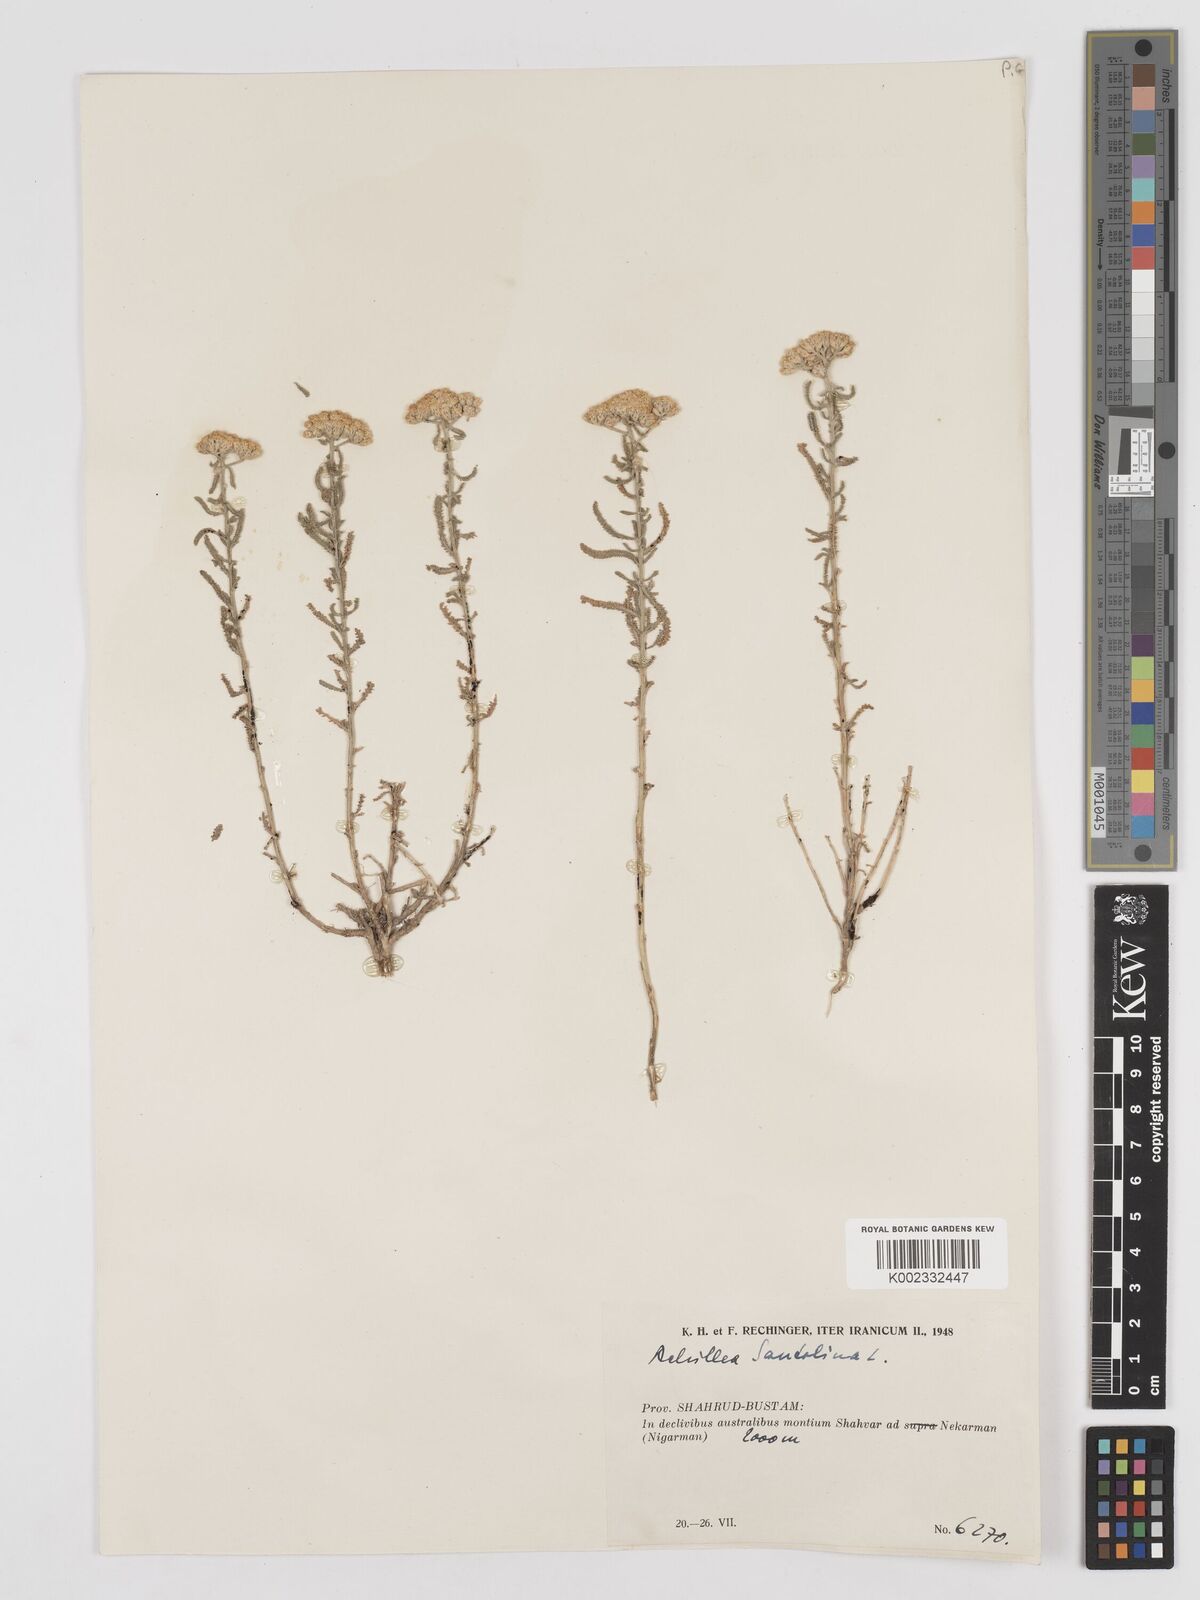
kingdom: Plantae
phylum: Tracheophyta
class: Magnoliopsida
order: Asterales
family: Asteraceae
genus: Achillea
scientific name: Achillea tenuifolia
